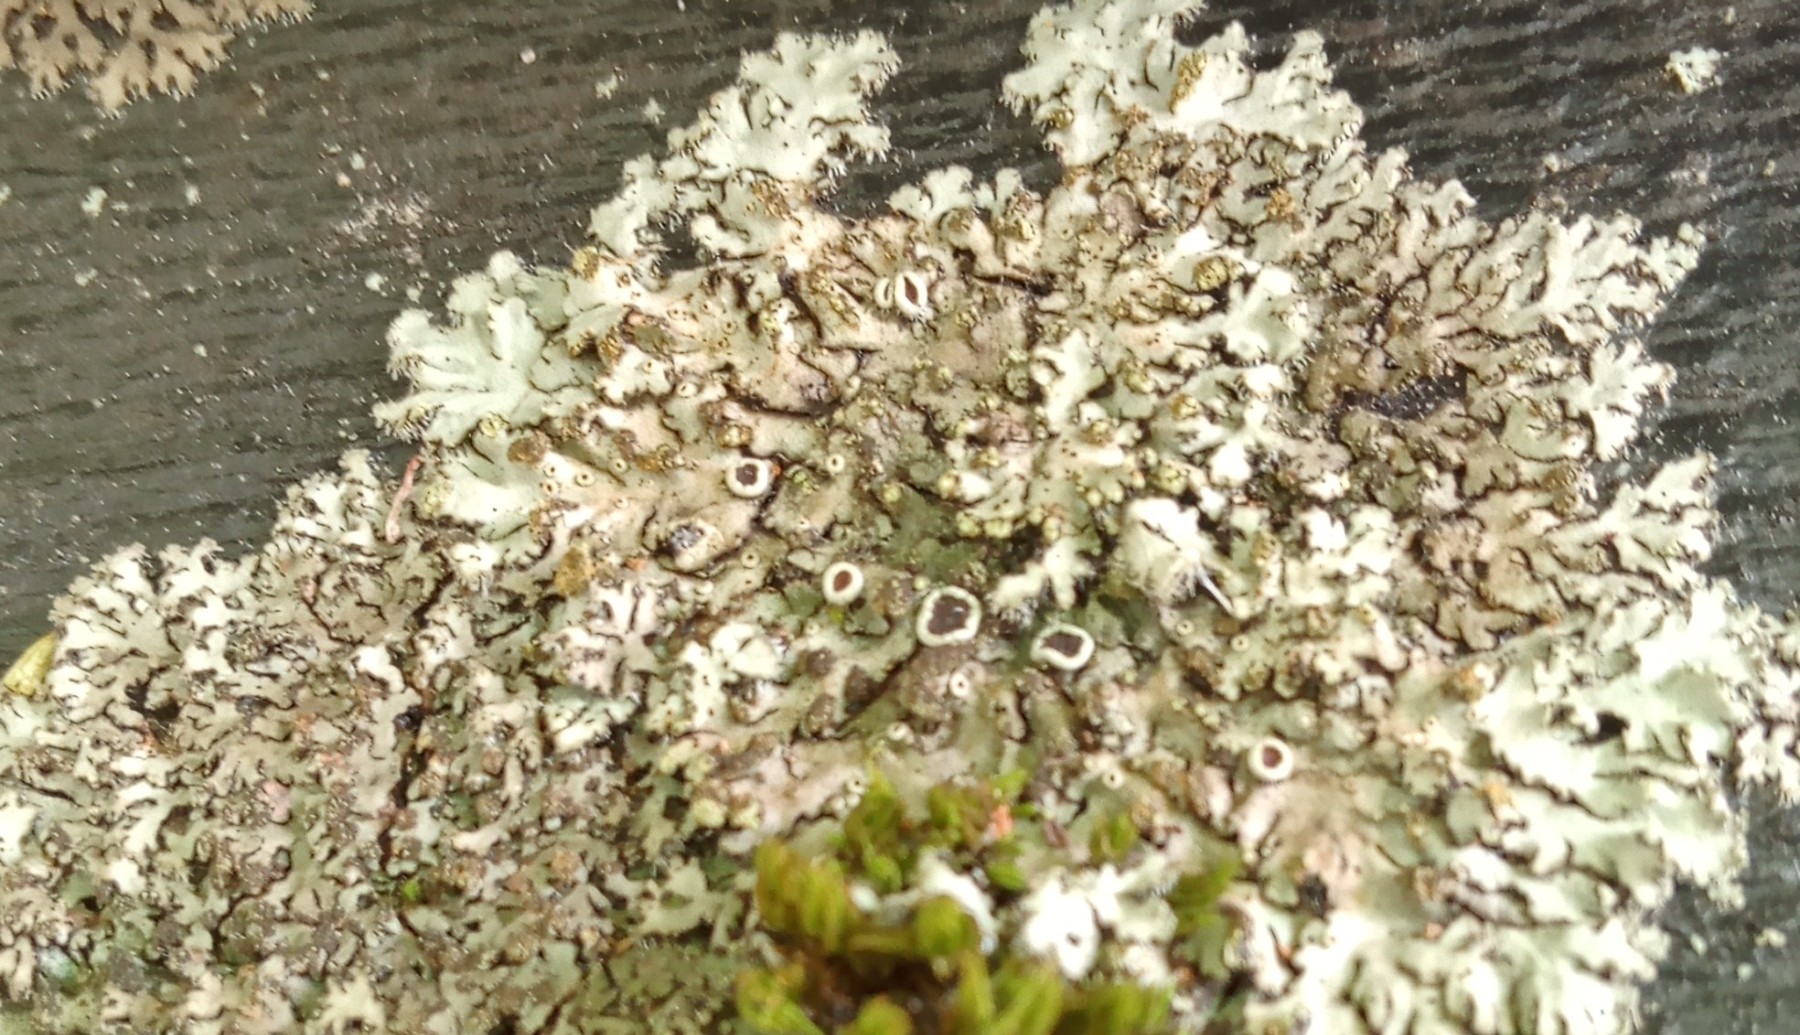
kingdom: Fungi
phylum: Ascomycota
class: Lecanoromycetes
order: Lecanorales
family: Lecanoraceae
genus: Protoparmeliopsis
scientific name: Protoparmeliopsis muralis
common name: randfliget kantskivelav
